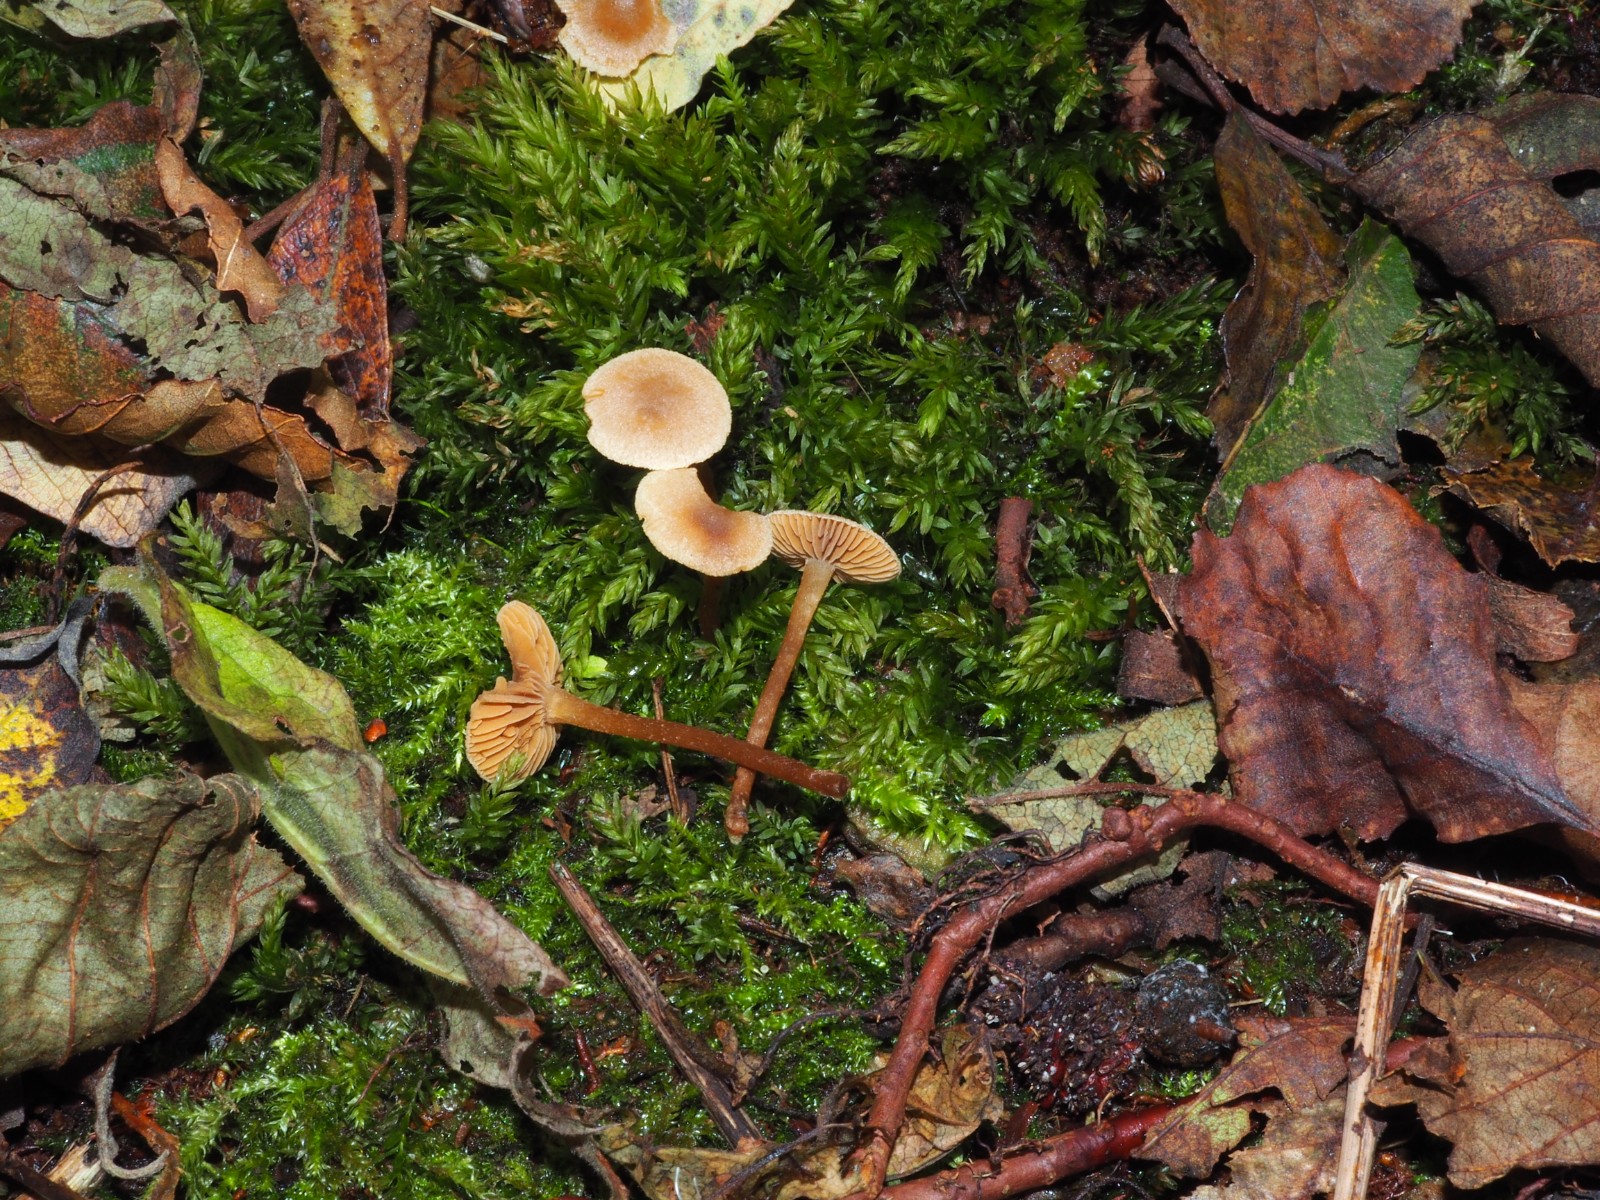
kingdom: Fungi
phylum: Basidiomycota
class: Agaricomycetes
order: Agaricales
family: Hymenogastraceae
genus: Naucoria
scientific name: Naucoria escharioides
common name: lys elle-knaphat
